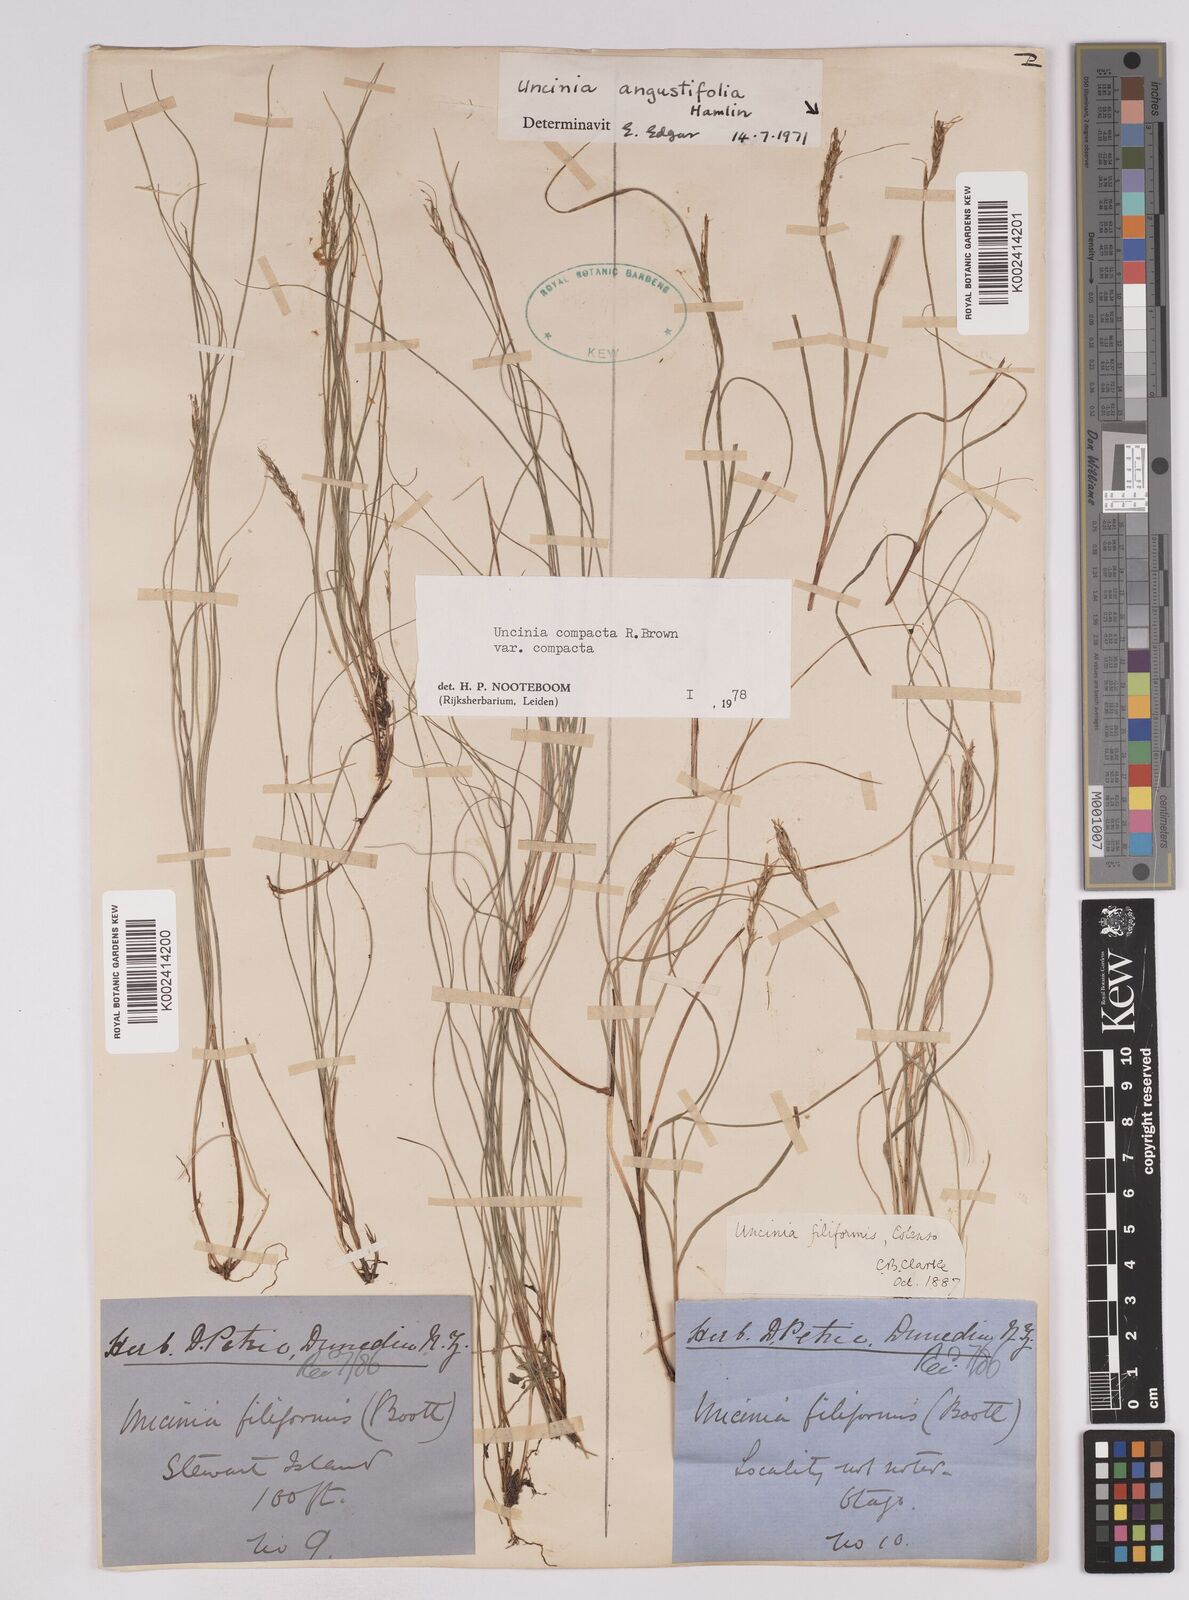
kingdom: Plantae
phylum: Tracheophyta
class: Liliopsida
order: Poales
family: Cyperaceae
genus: Carex
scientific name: Carex austrocompacta
